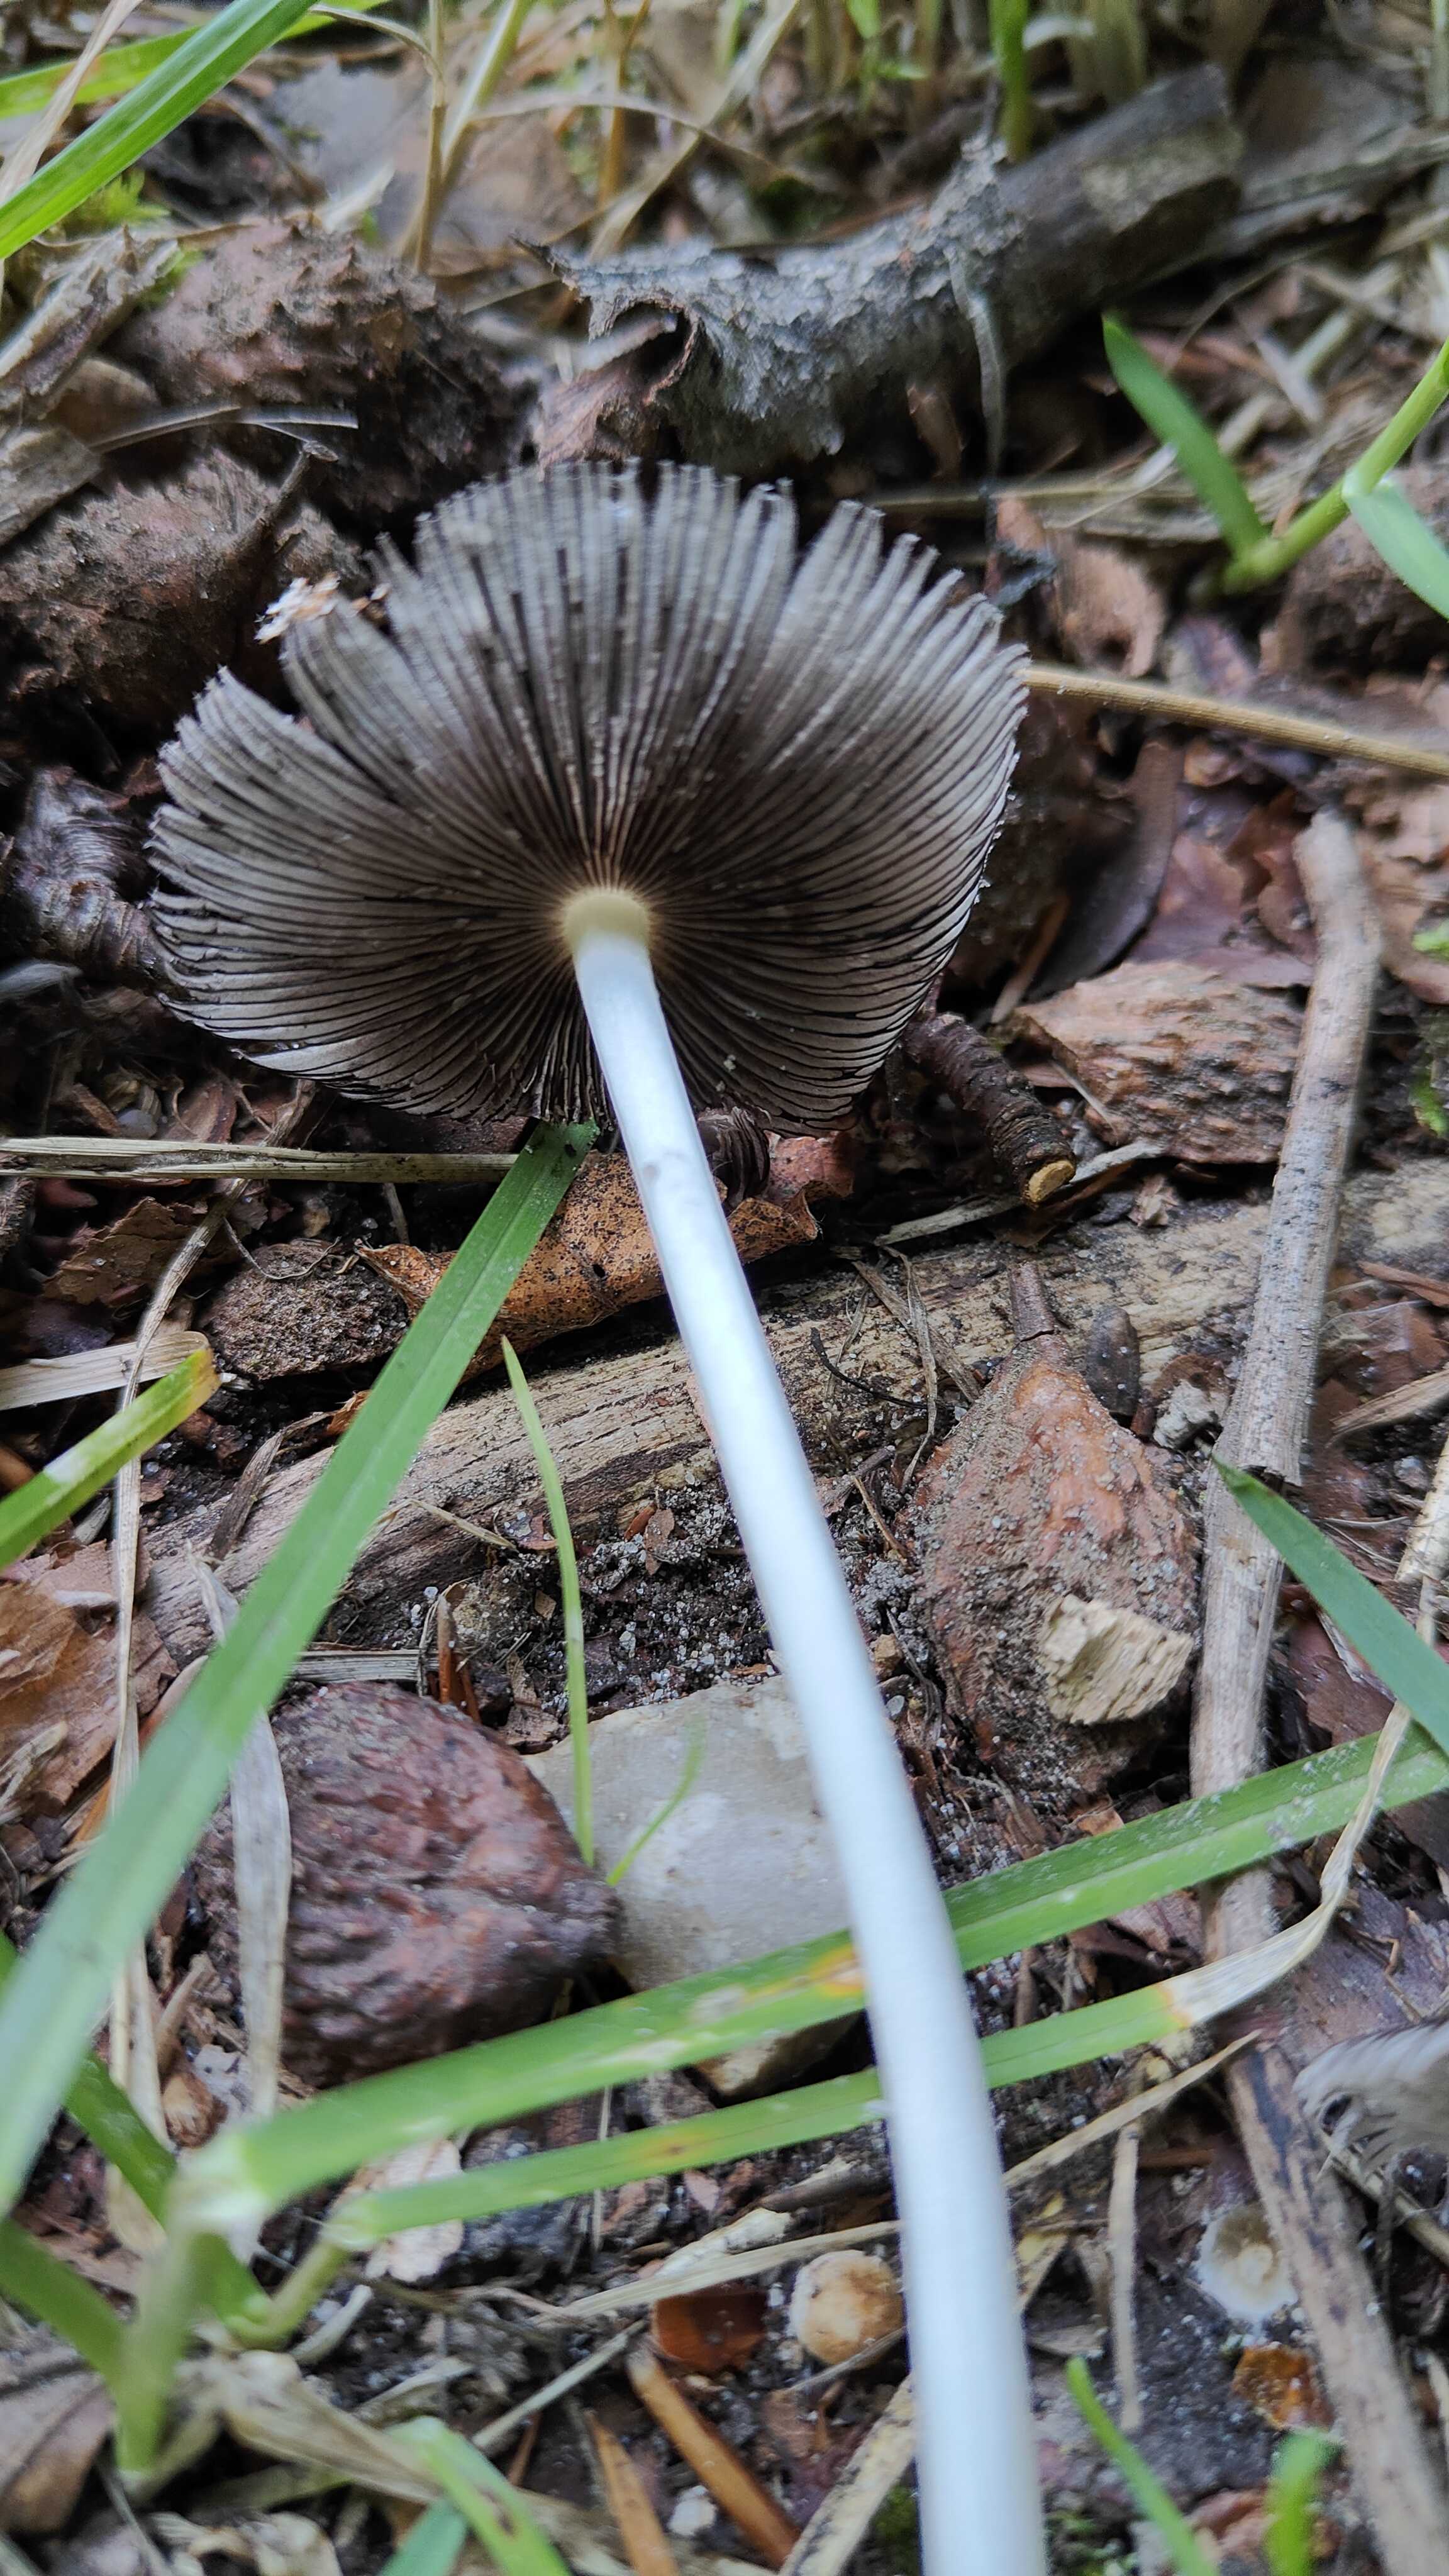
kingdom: Fungi
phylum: Basidiomycota
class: Agaricomycetes
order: Agaricales
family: Psathyrellaceae
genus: Coprinellus
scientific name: Coprinellus
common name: blækhat
